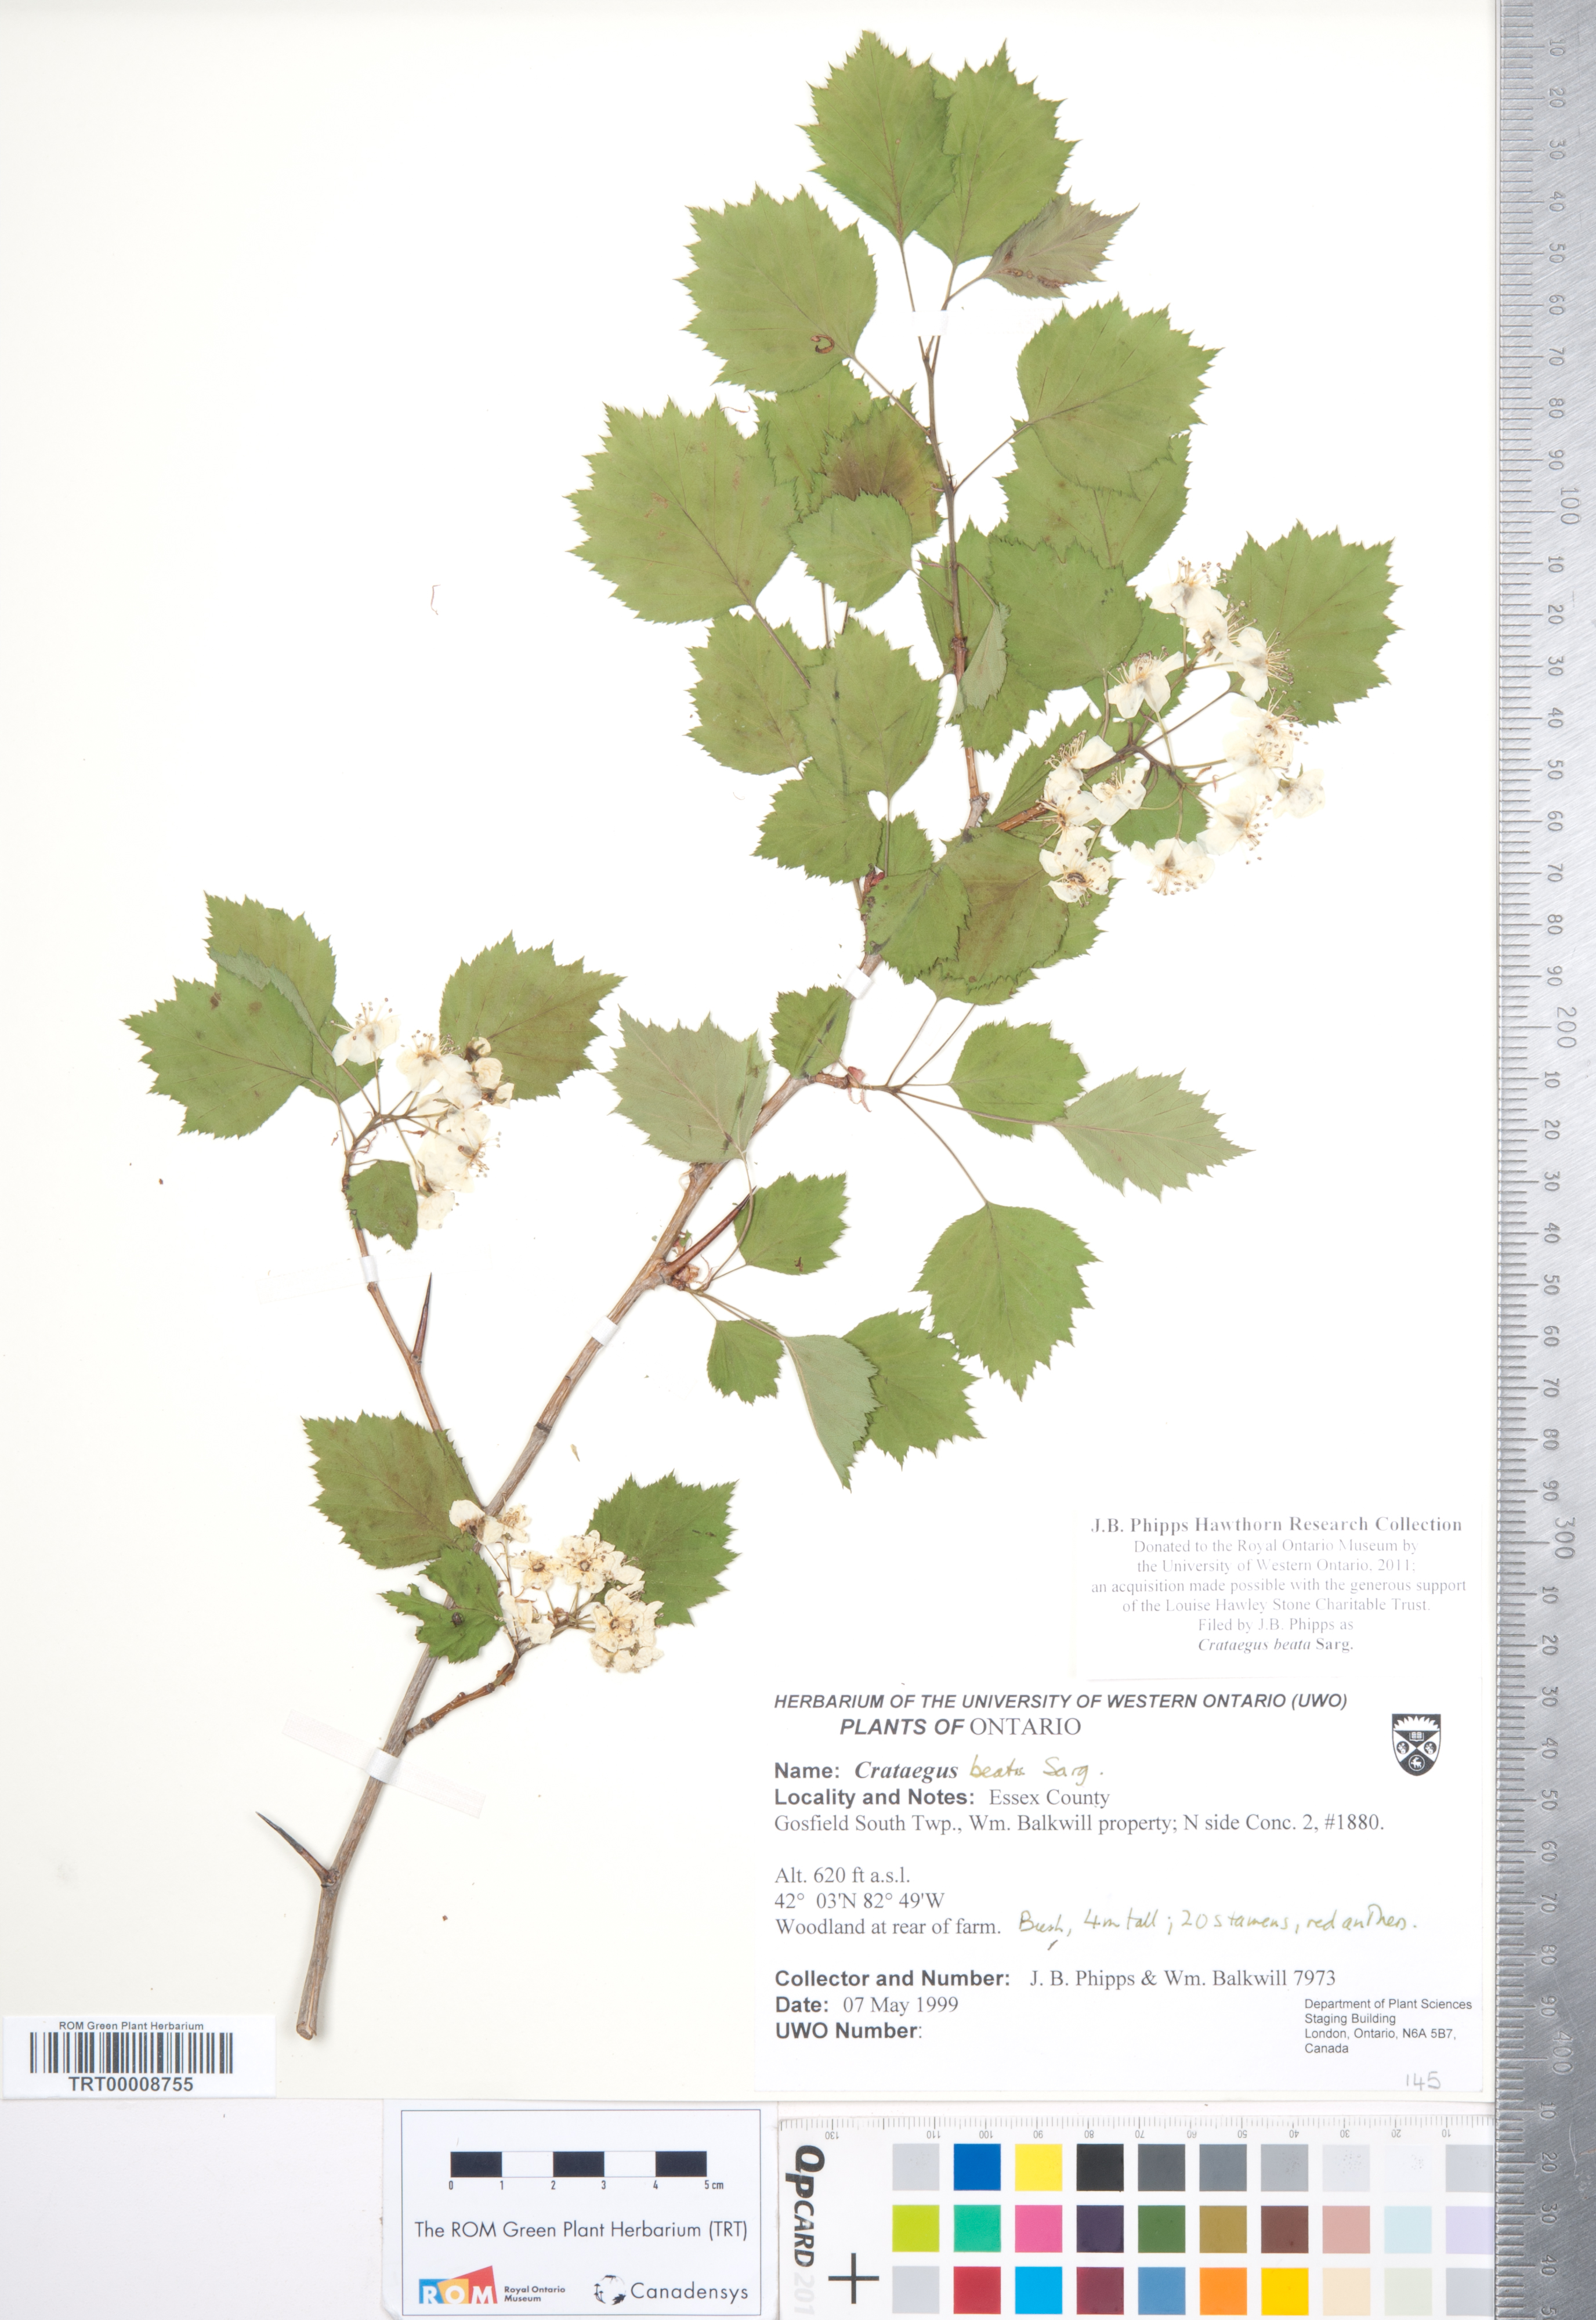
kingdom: Plantae
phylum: Tracheophyta
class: Magnoliopsida
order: Rosales
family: Rosaceae
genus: Crataegus
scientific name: Crataegus beata
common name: Dunbar's hawthorn
